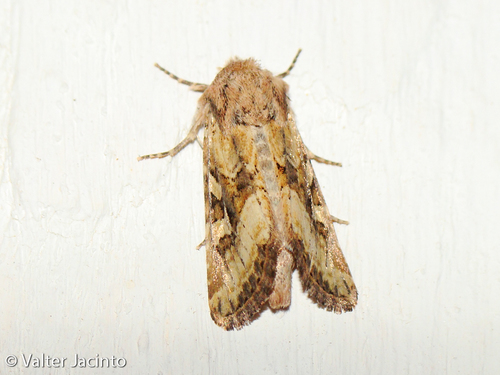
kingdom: Animalia
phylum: Arthropoda
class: Insecta
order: Lepidoptera
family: Noctuidae
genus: Luperina
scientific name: Luperina dumerilii
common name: Dumeril's rustic
